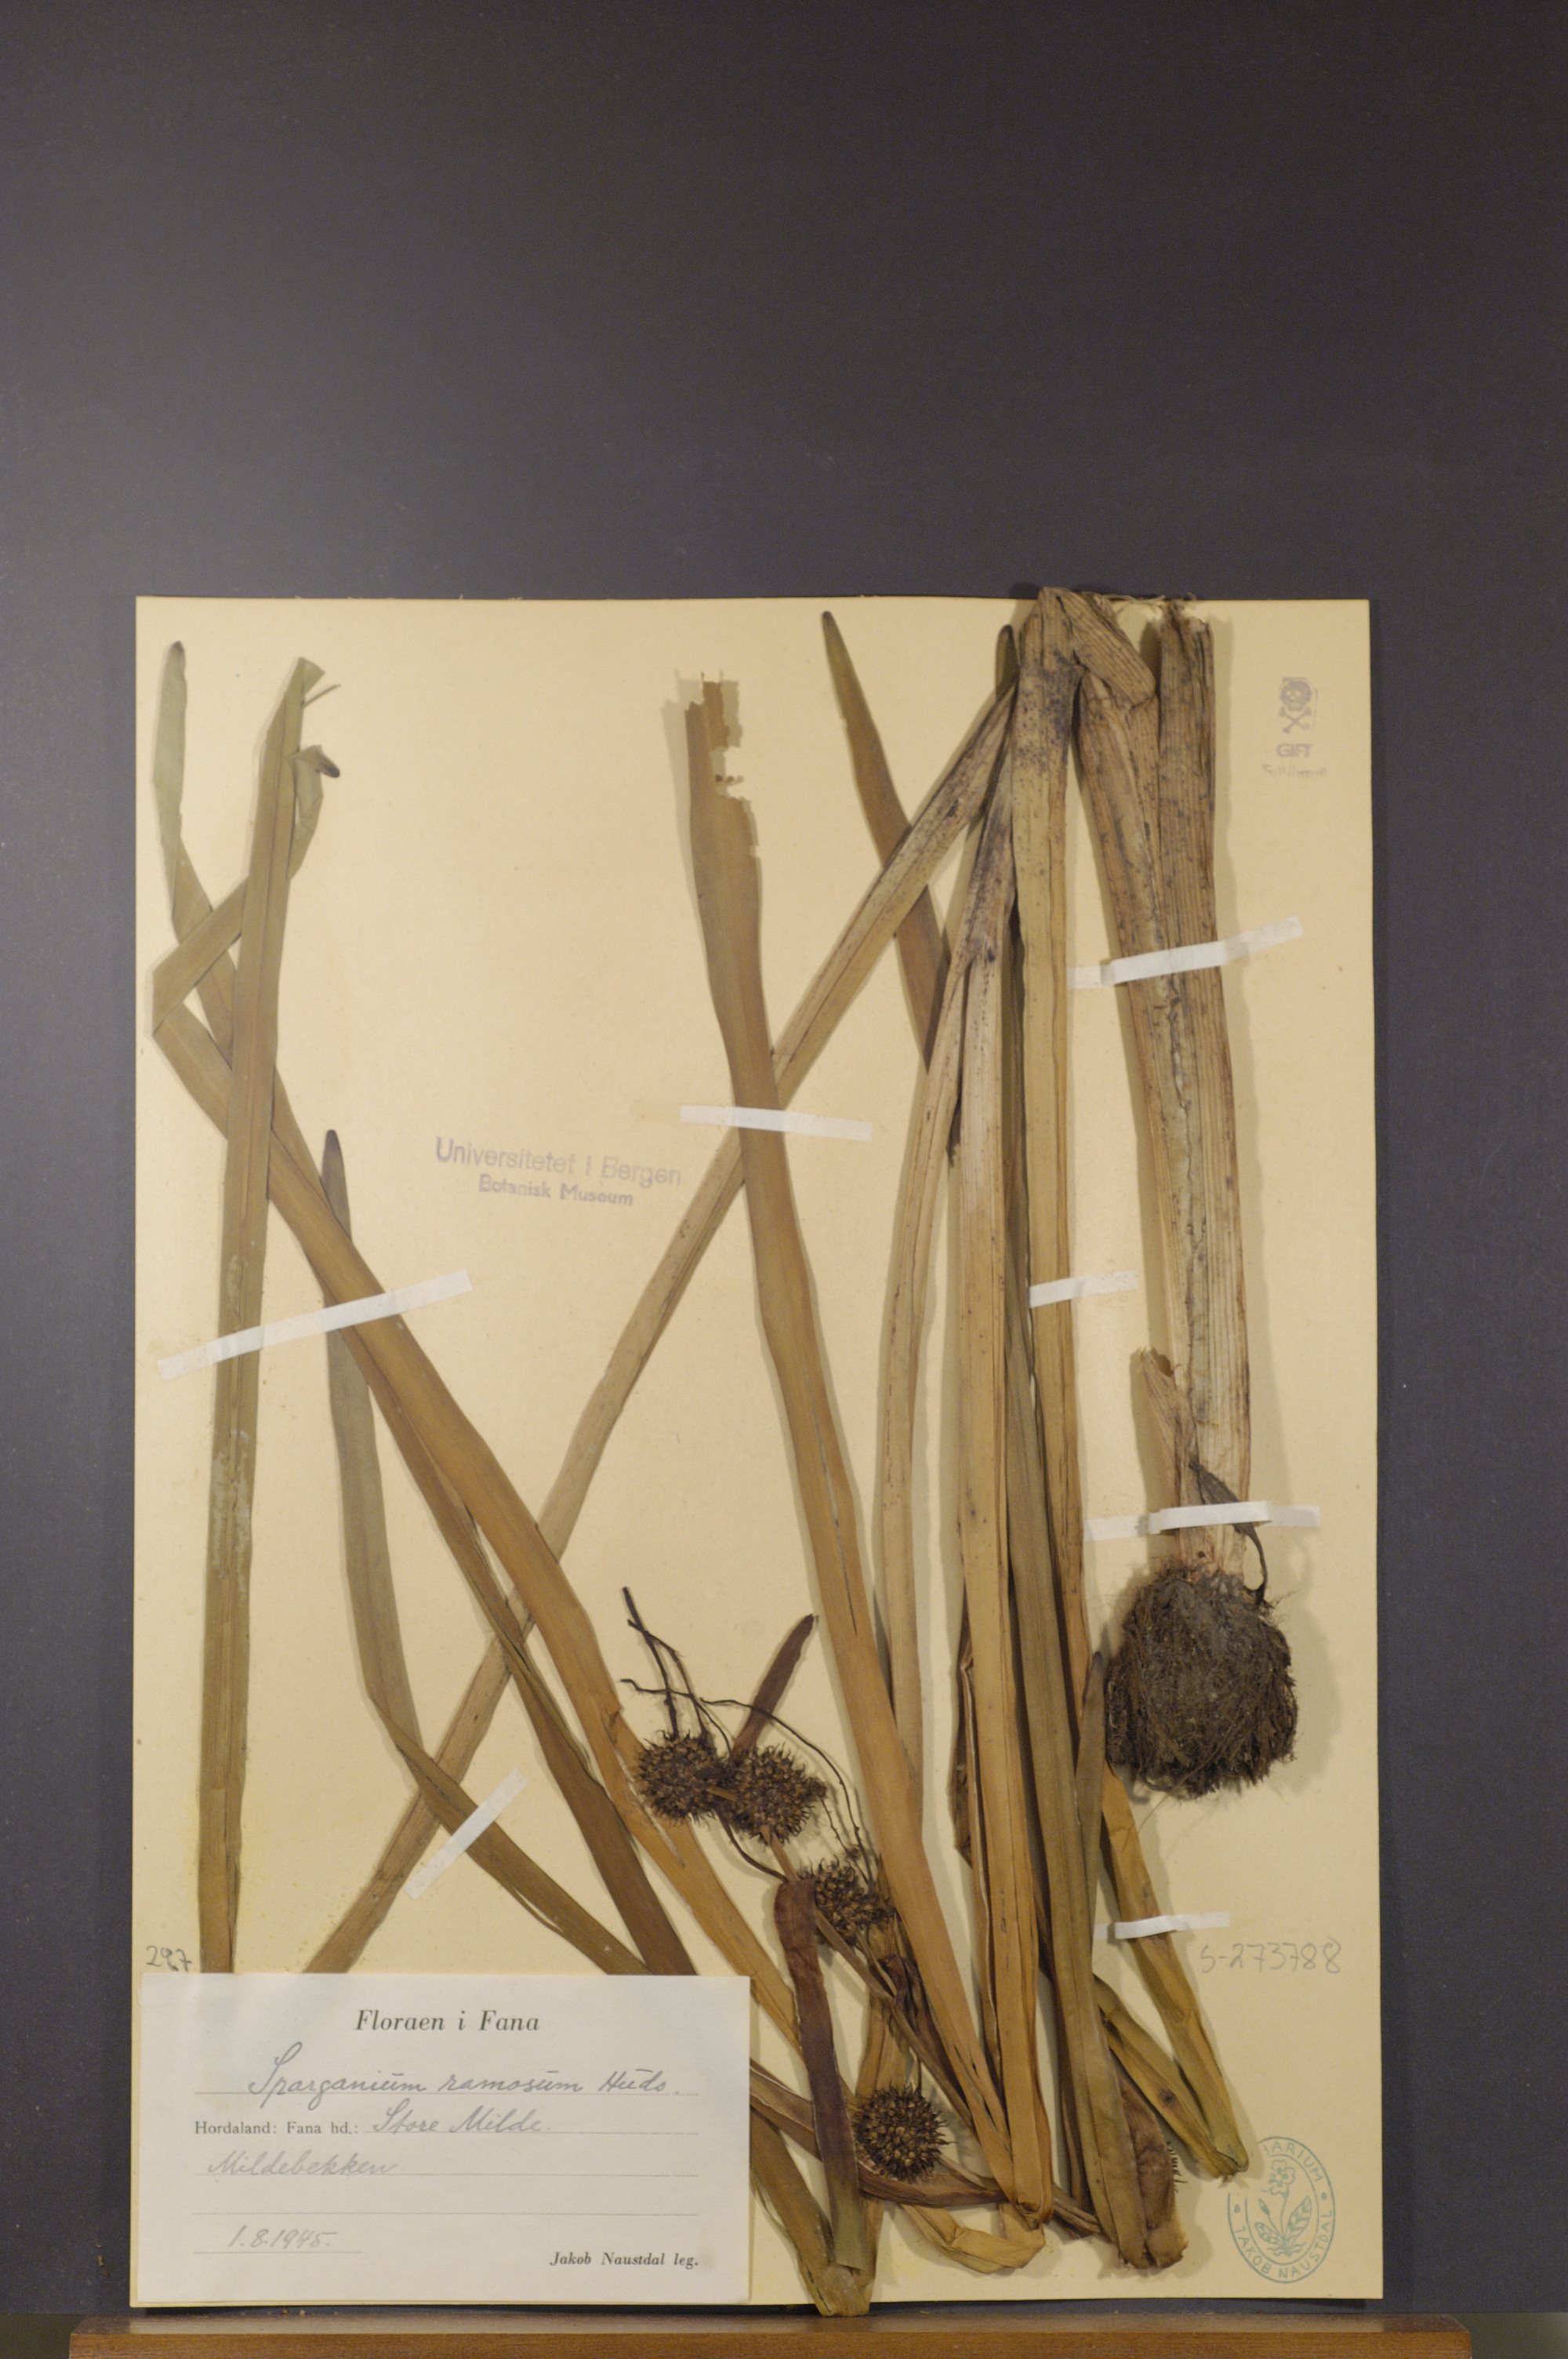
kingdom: Plantae
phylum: Tracheophyta
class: Liliopsida
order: Poales
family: Typhaceae
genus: Sparganium
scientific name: Sparganium erectum
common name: Branched bur-reed
